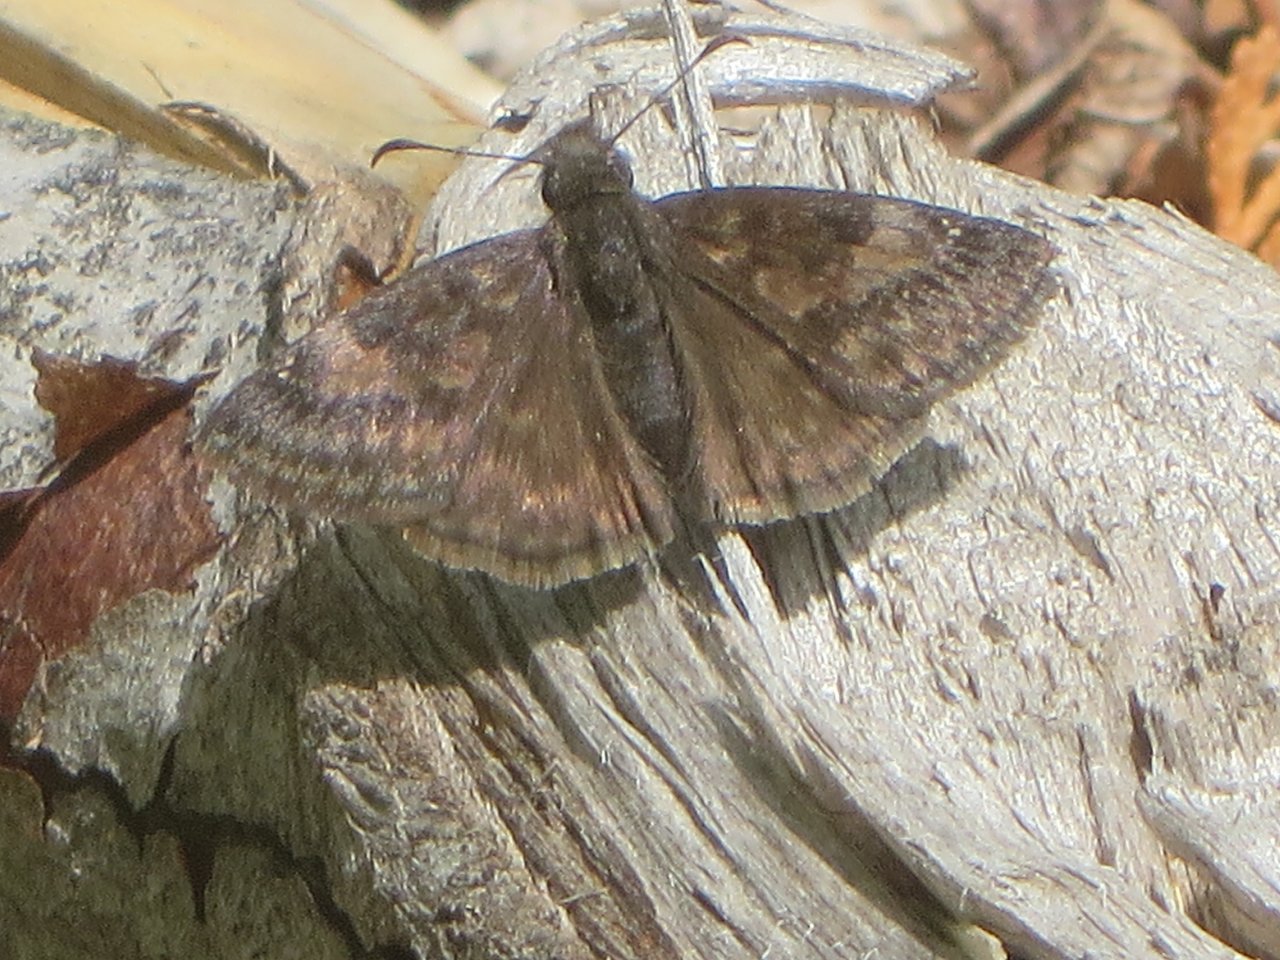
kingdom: Animalia
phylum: Arthropoda
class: Insecta
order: Lepidoptera
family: Hesperiidae
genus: Gesta
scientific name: Gesta
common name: Wild Indigo Duskywing
